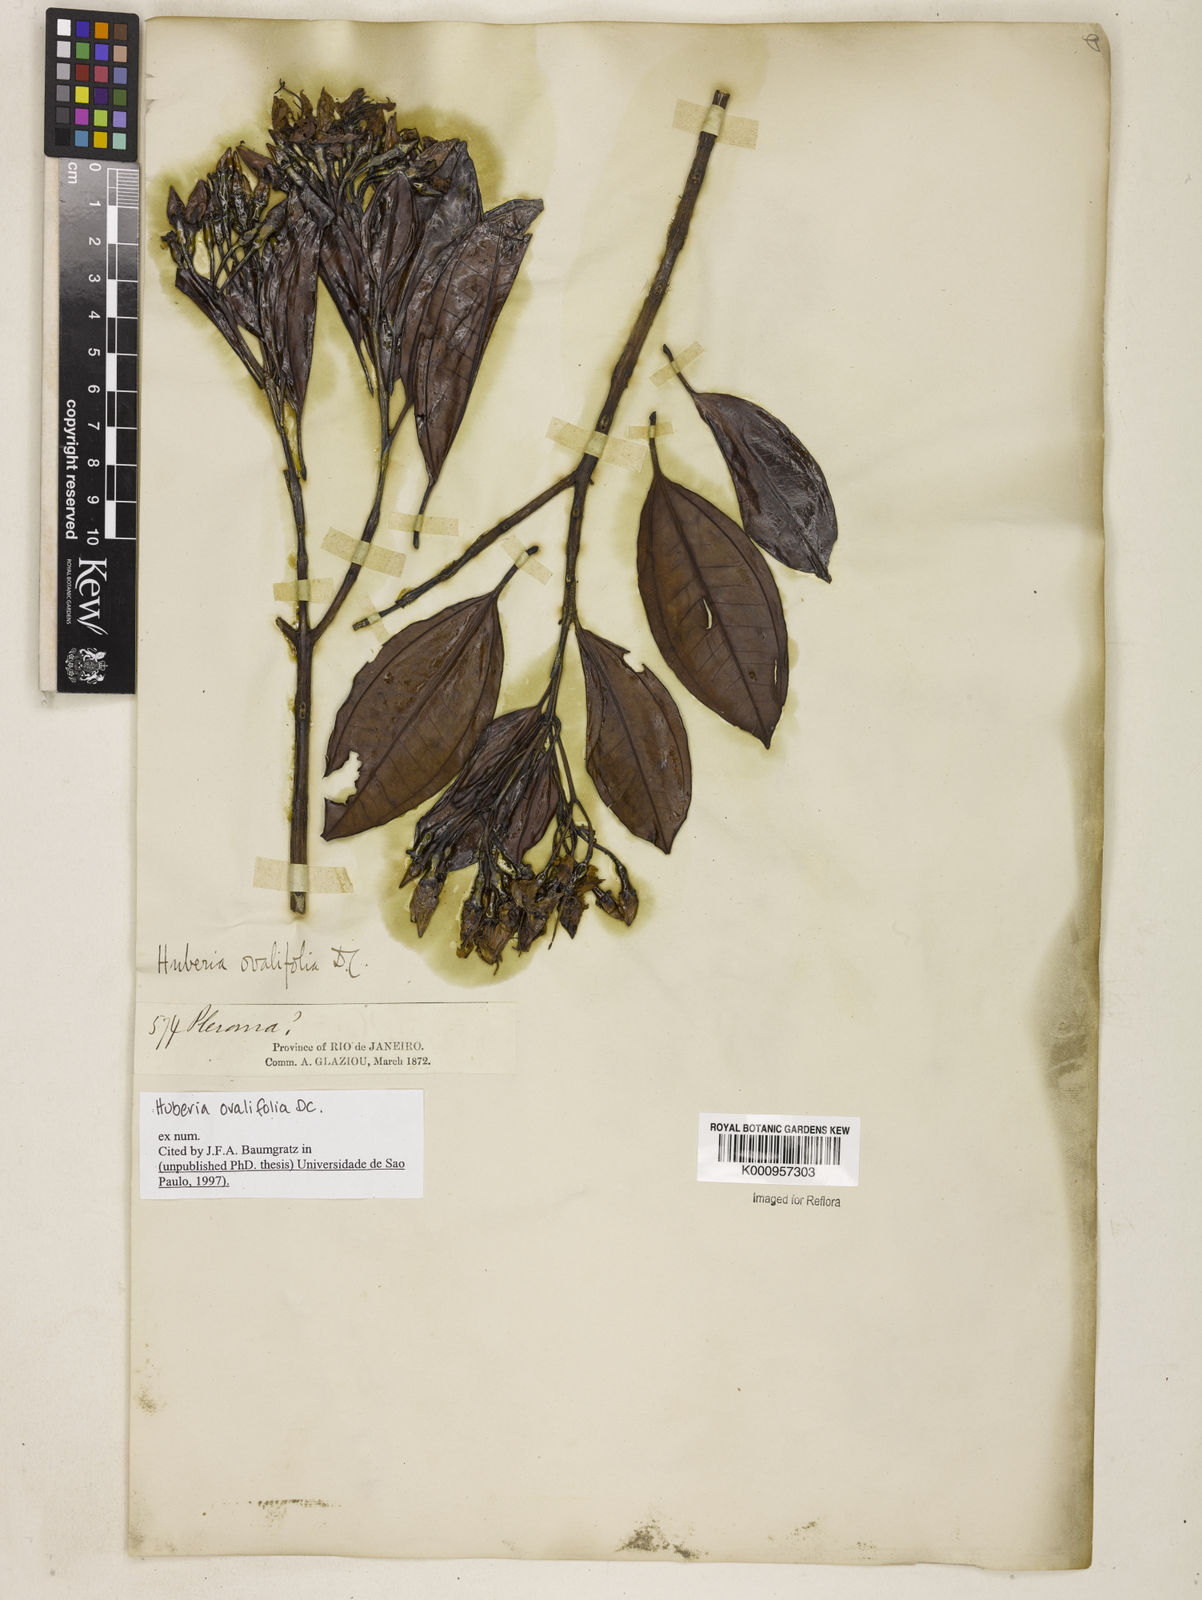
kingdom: Plantae
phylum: Tracheophyta
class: Magnoliopsida
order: Myrtales
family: Melastomataceae
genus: Huberia
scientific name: Huberia ovalifolia
